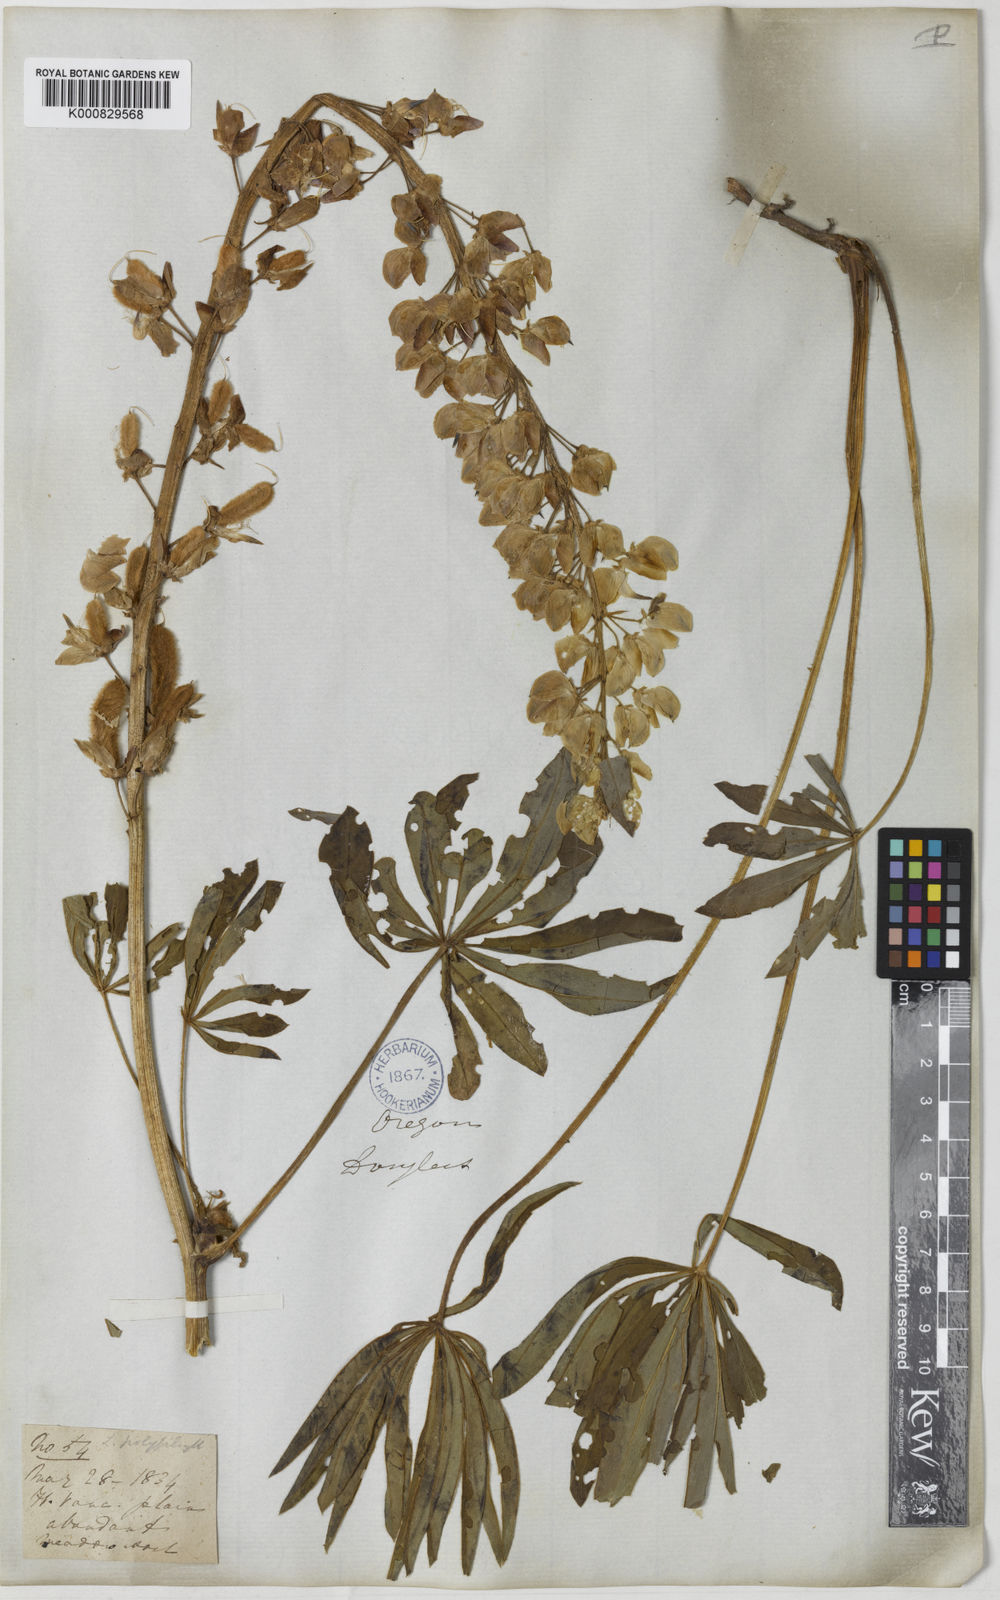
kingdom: Plantae
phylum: Tracheophyta
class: Magnoliopsida
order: Fabales
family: Fabaceae
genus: Lupinus
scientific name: Lupinus polyphyllus
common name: Garden lupin
